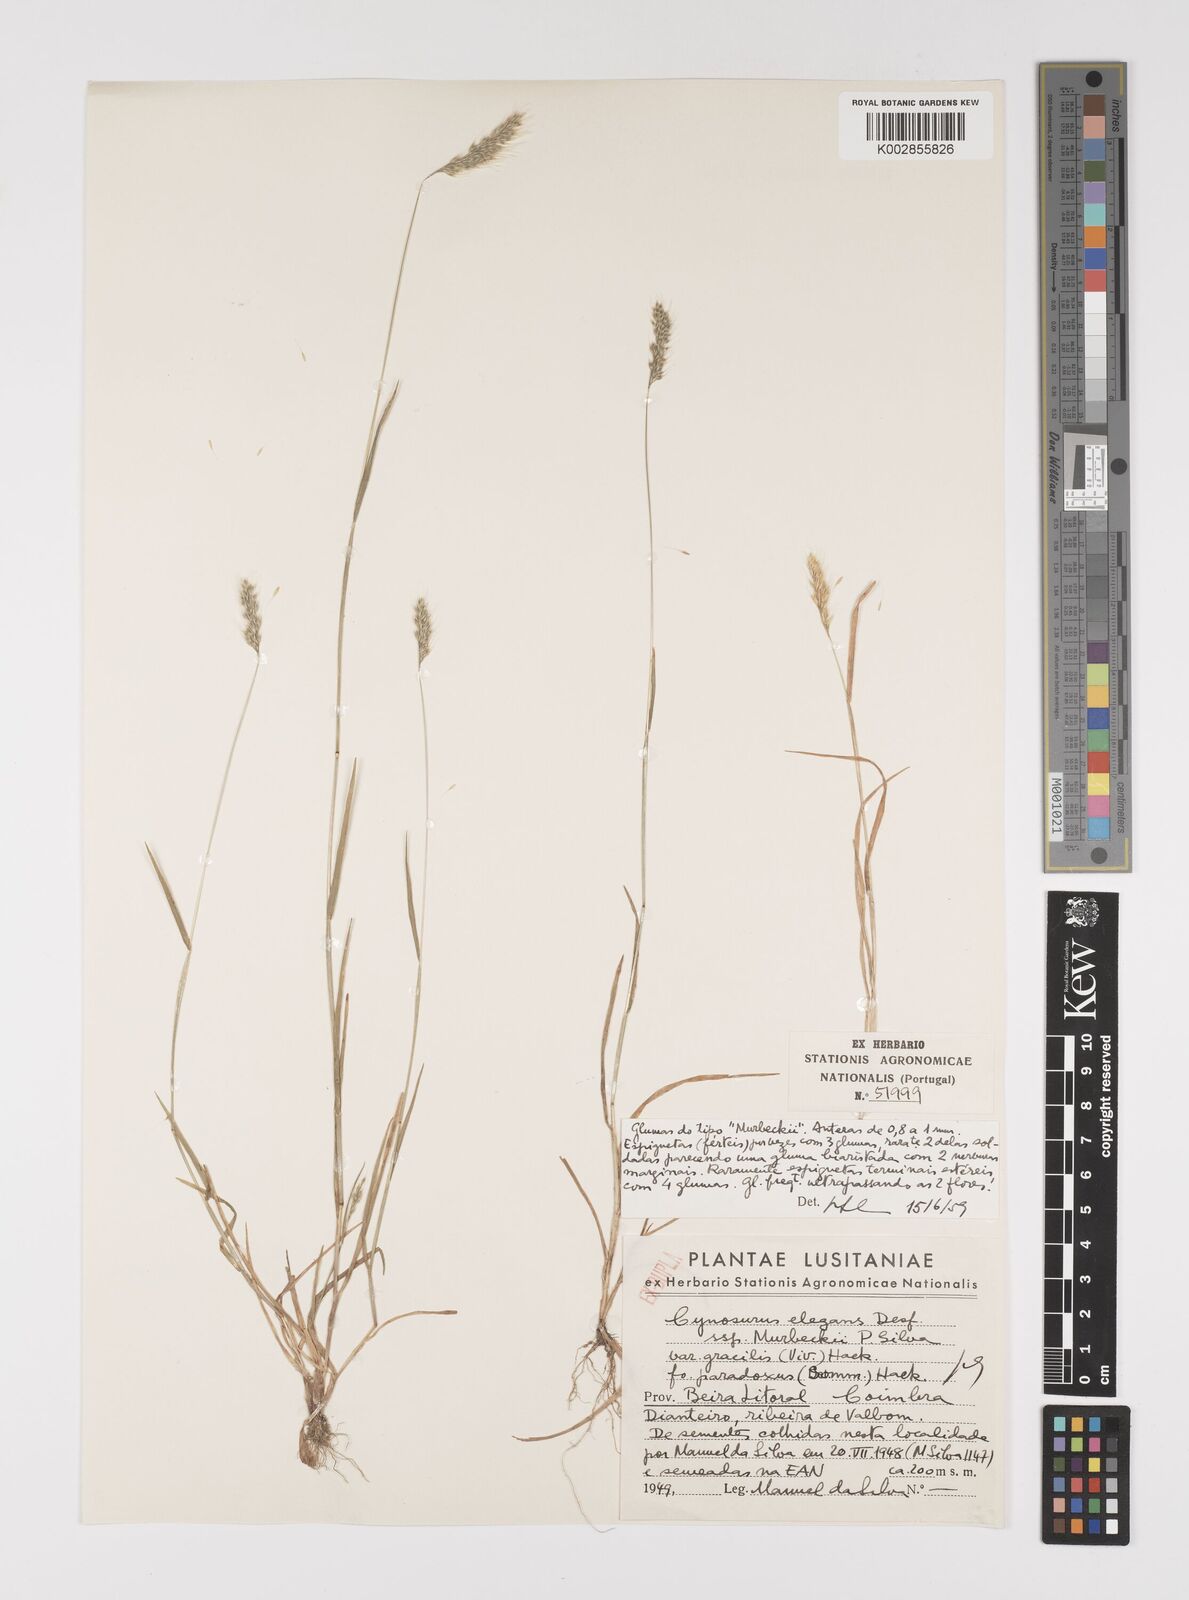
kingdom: Plantae
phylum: Tracheophyta
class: Liliopsida
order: Poales
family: Poaceae
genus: Cynosurus
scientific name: Cynosurus elegans
